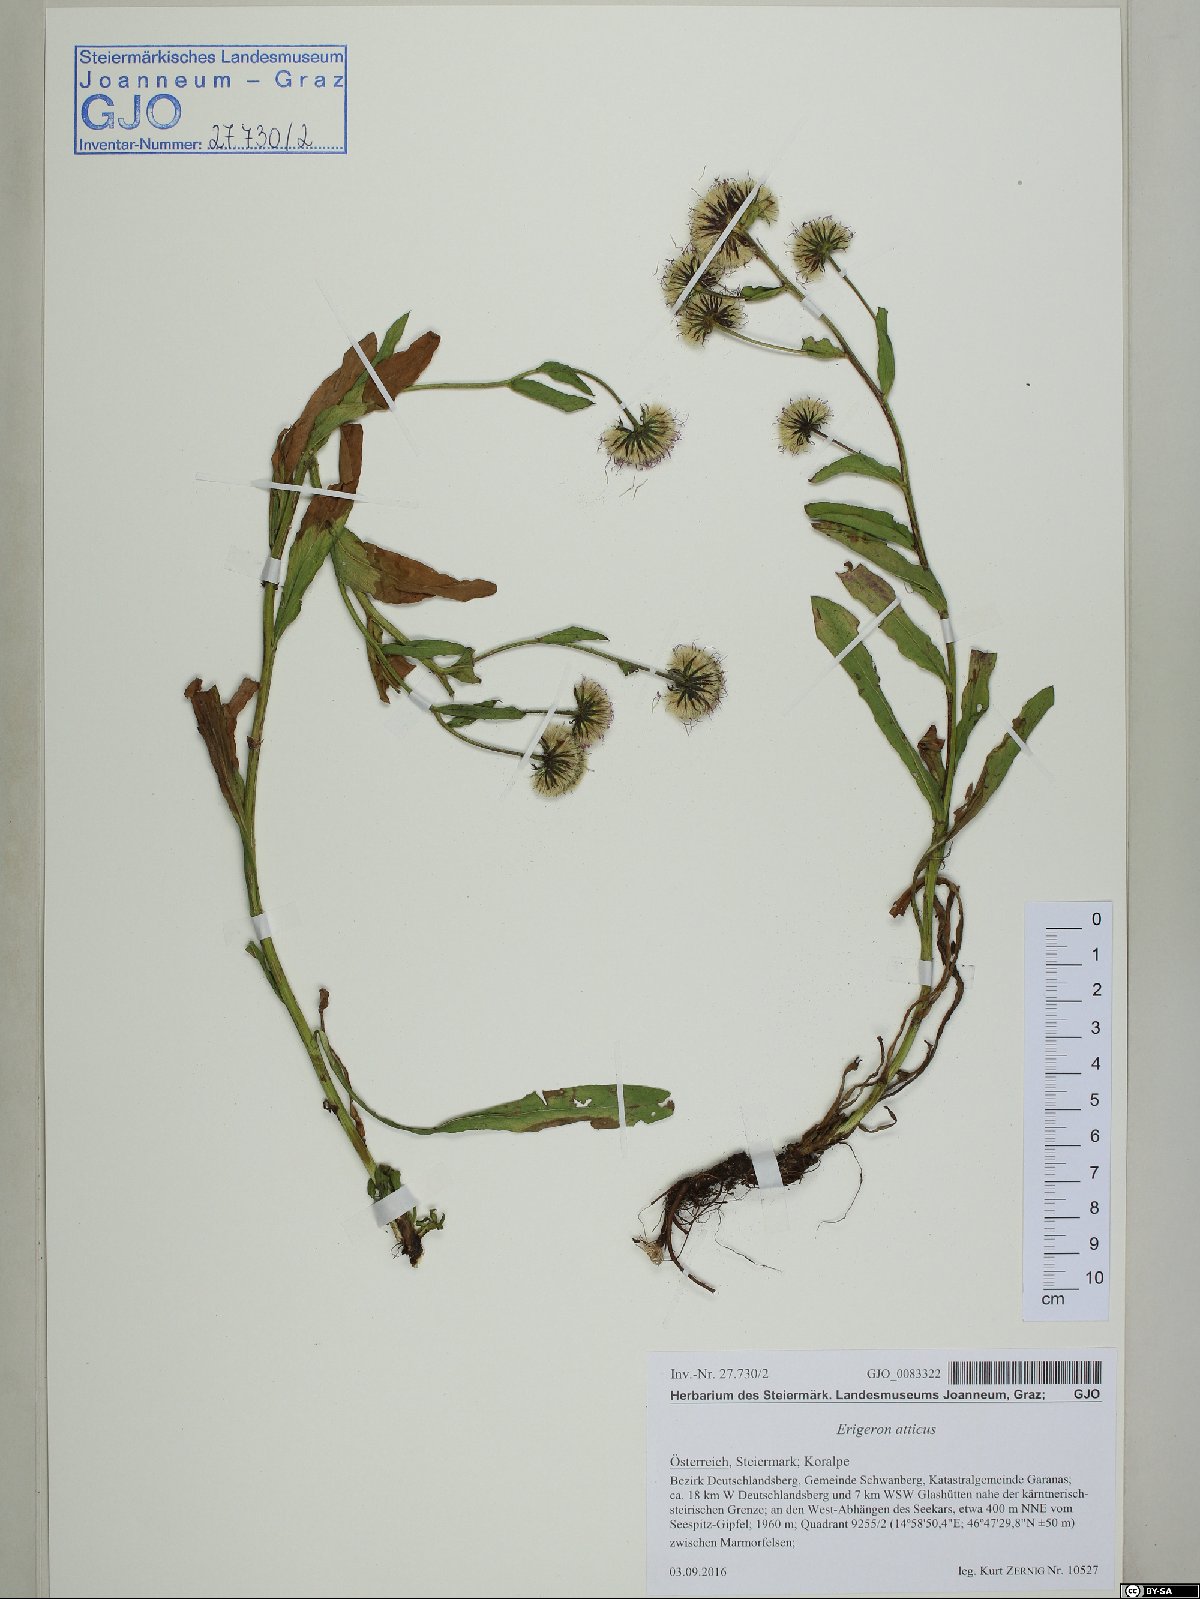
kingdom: Plantae
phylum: Tracheophyta
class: Magnoliopsida
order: Asterales
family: Asteraceae
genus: Erigeron
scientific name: Erigeron atticus
